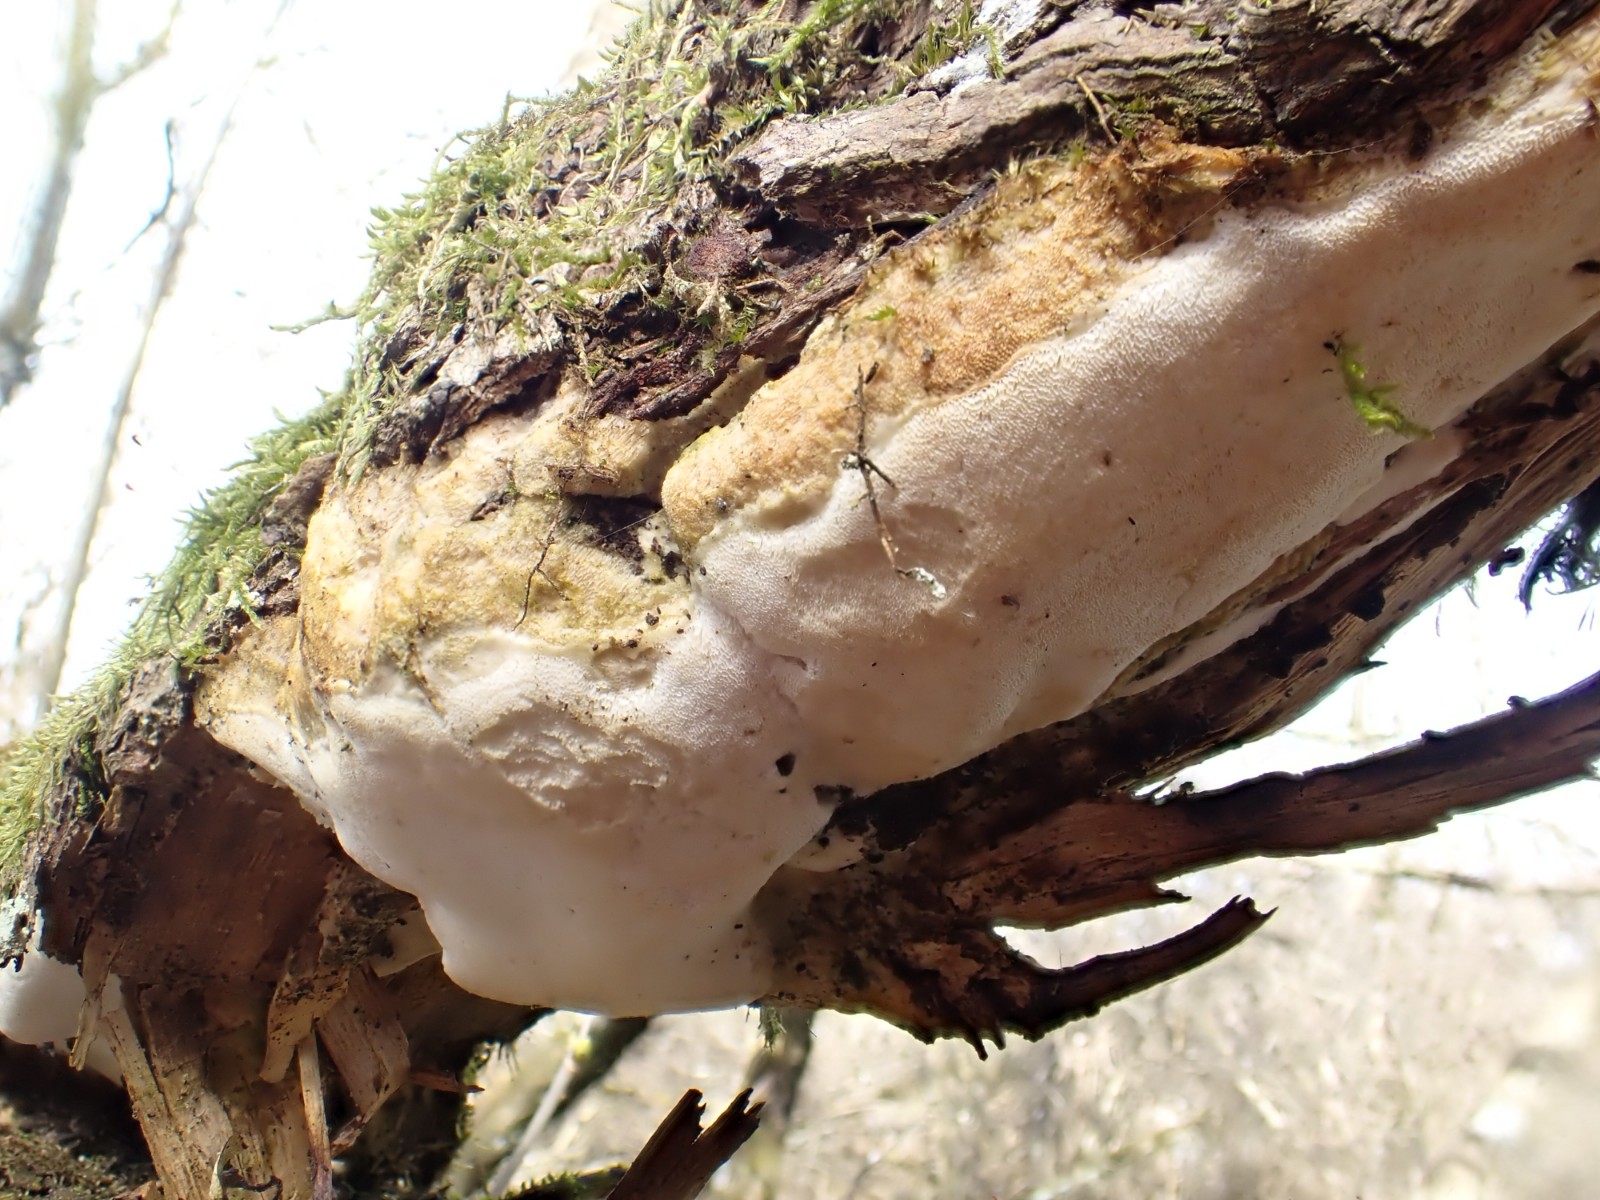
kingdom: Fungi
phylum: Basidiomycota
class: Agaricomycetes
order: Hymenochaetales
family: Oxyporaceae
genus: Oxyporus
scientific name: Oxyporus populinus
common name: sammenvokset trylleporesvamp
